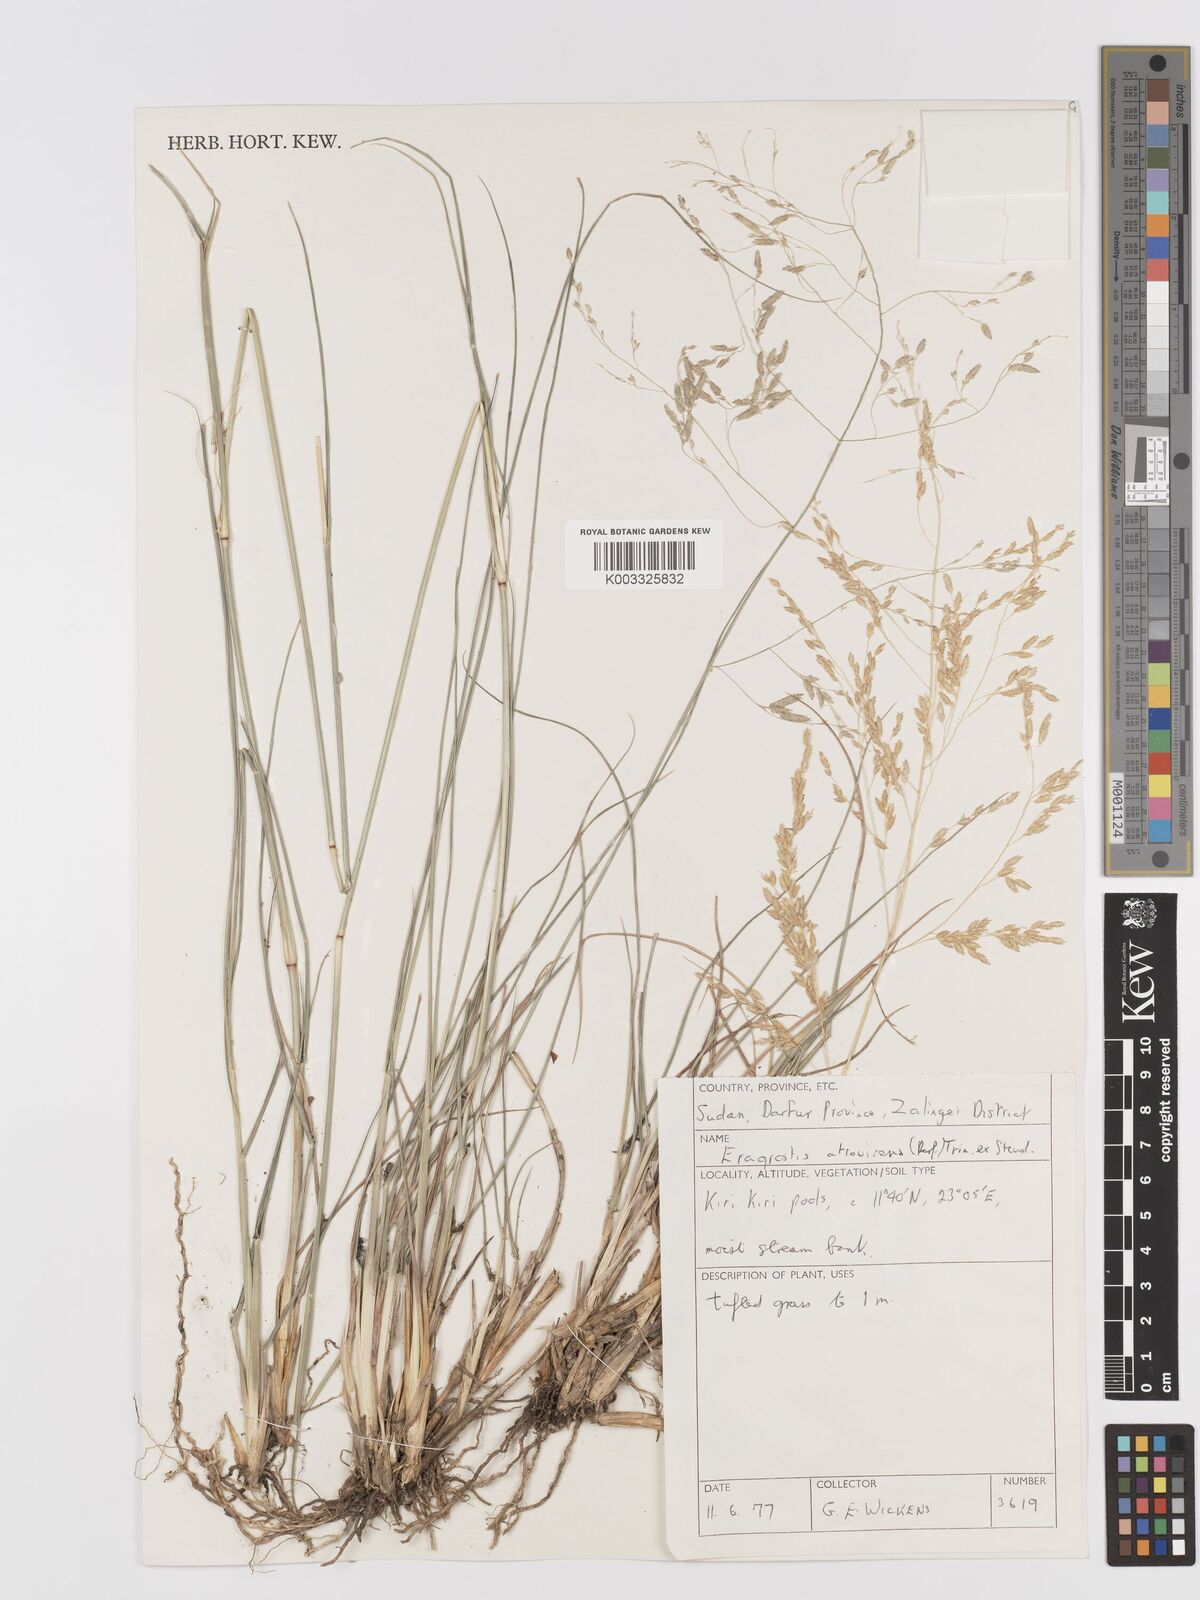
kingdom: Plantae
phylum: Tracheophyta
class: Liliopsida
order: Poales
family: Poaceae
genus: Eragrostis
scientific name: Eragrostis atrovirens
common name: Thalia lovegrass
